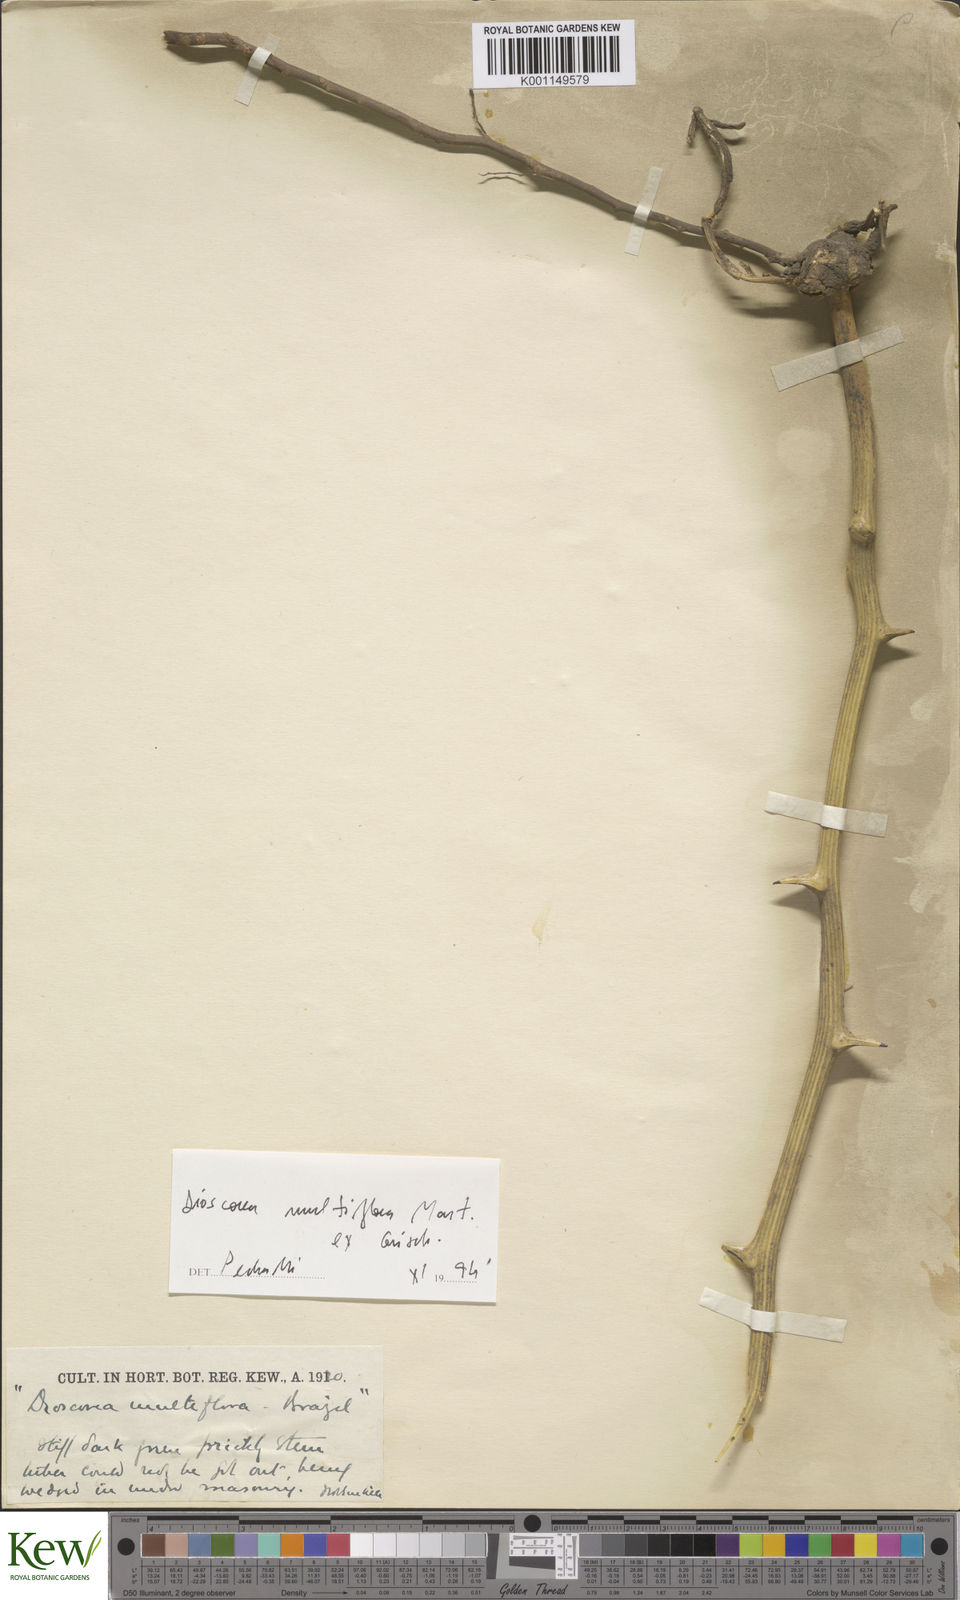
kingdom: Plantae
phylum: Tracheophyta
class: Liliopsida
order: Dioscoreales
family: Dioscoreaceae
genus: Dioscorea
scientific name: Dioscorea multiflora
